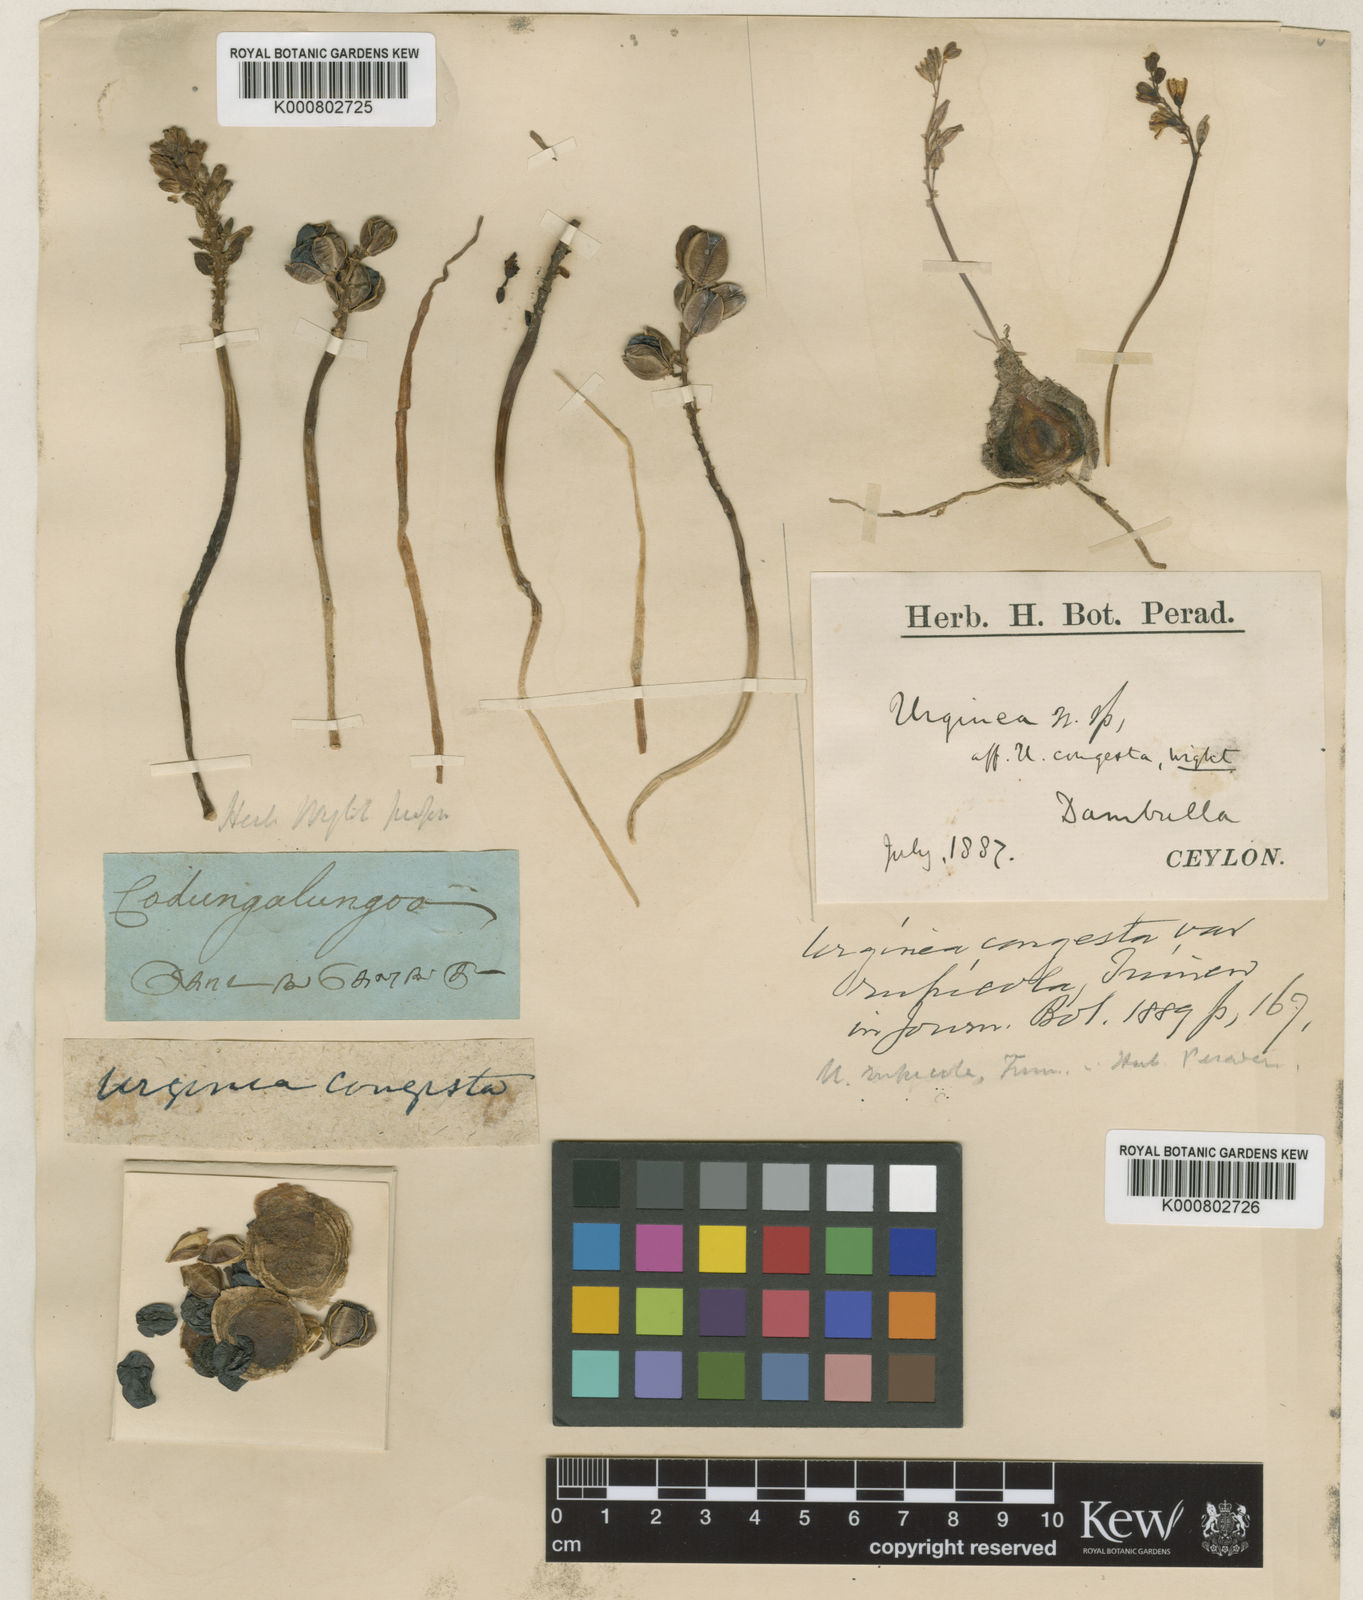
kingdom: Plantae
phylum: Tracheophyta
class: Liliopsida
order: Asparagales
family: Asparagaceae
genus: Drimia
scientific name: Drimia wightii
